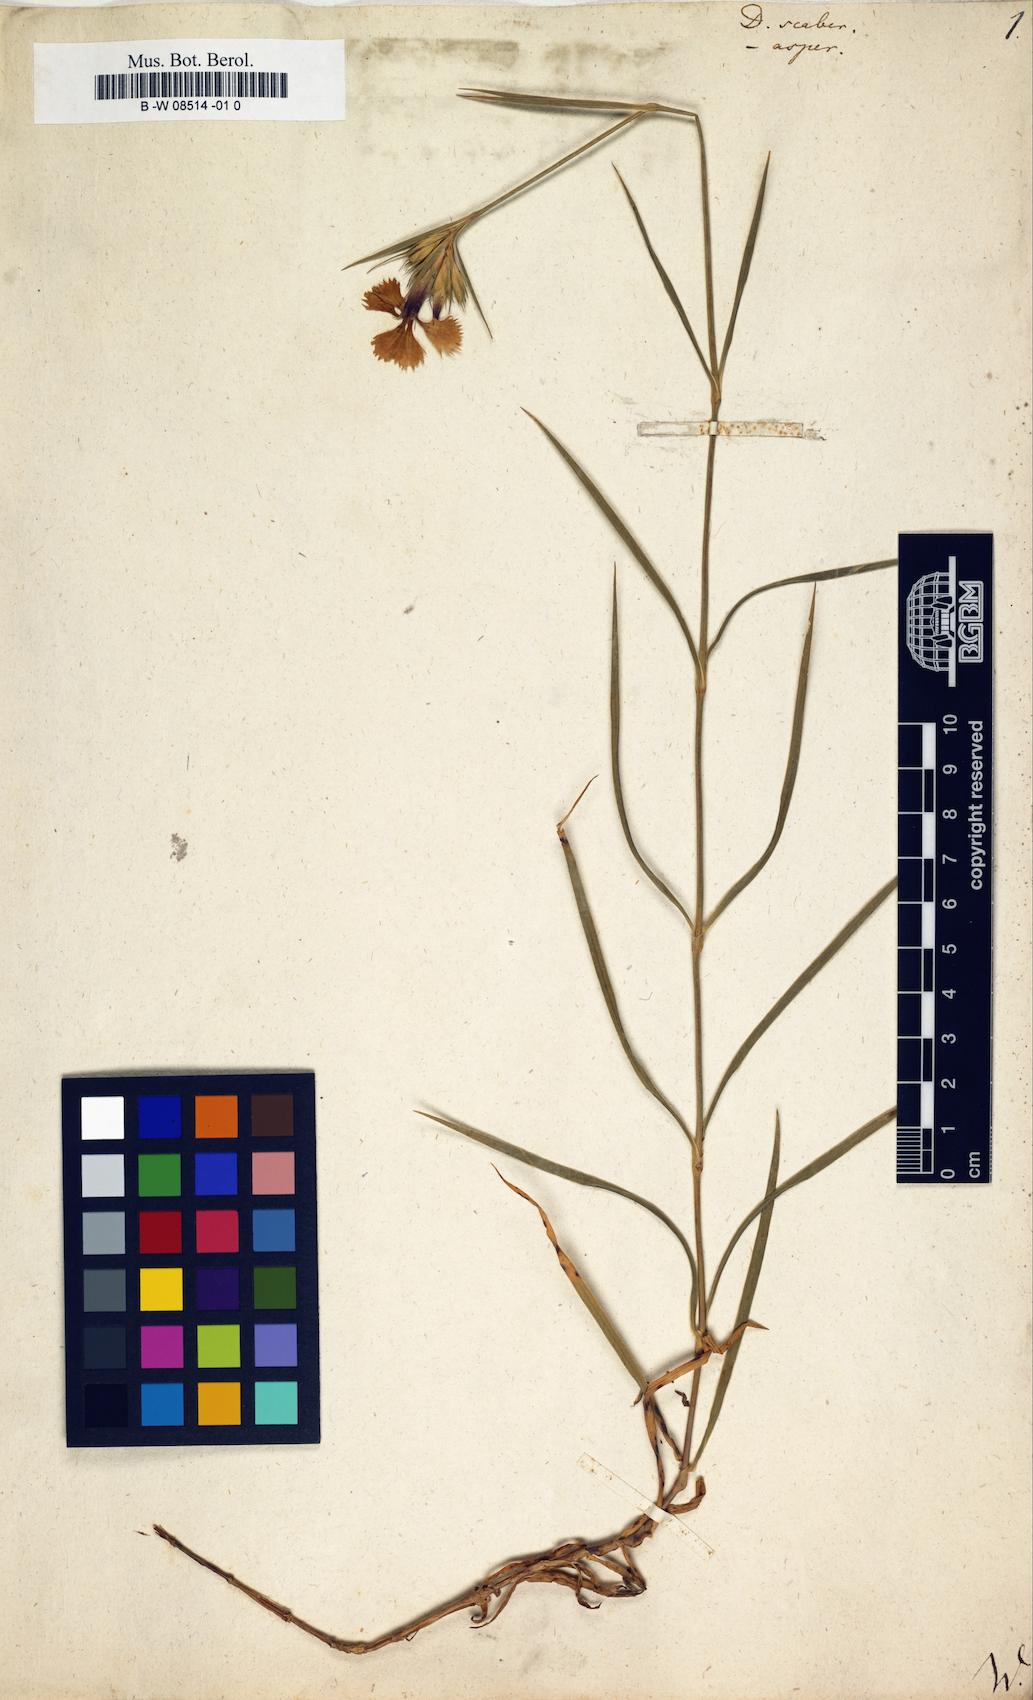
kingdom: Plantae
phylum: Tracheophyta
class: Magnoliopsida
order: Caryophyllales
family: Caryophyllaceae
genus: Dianthus
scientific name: Dianthus scaber
